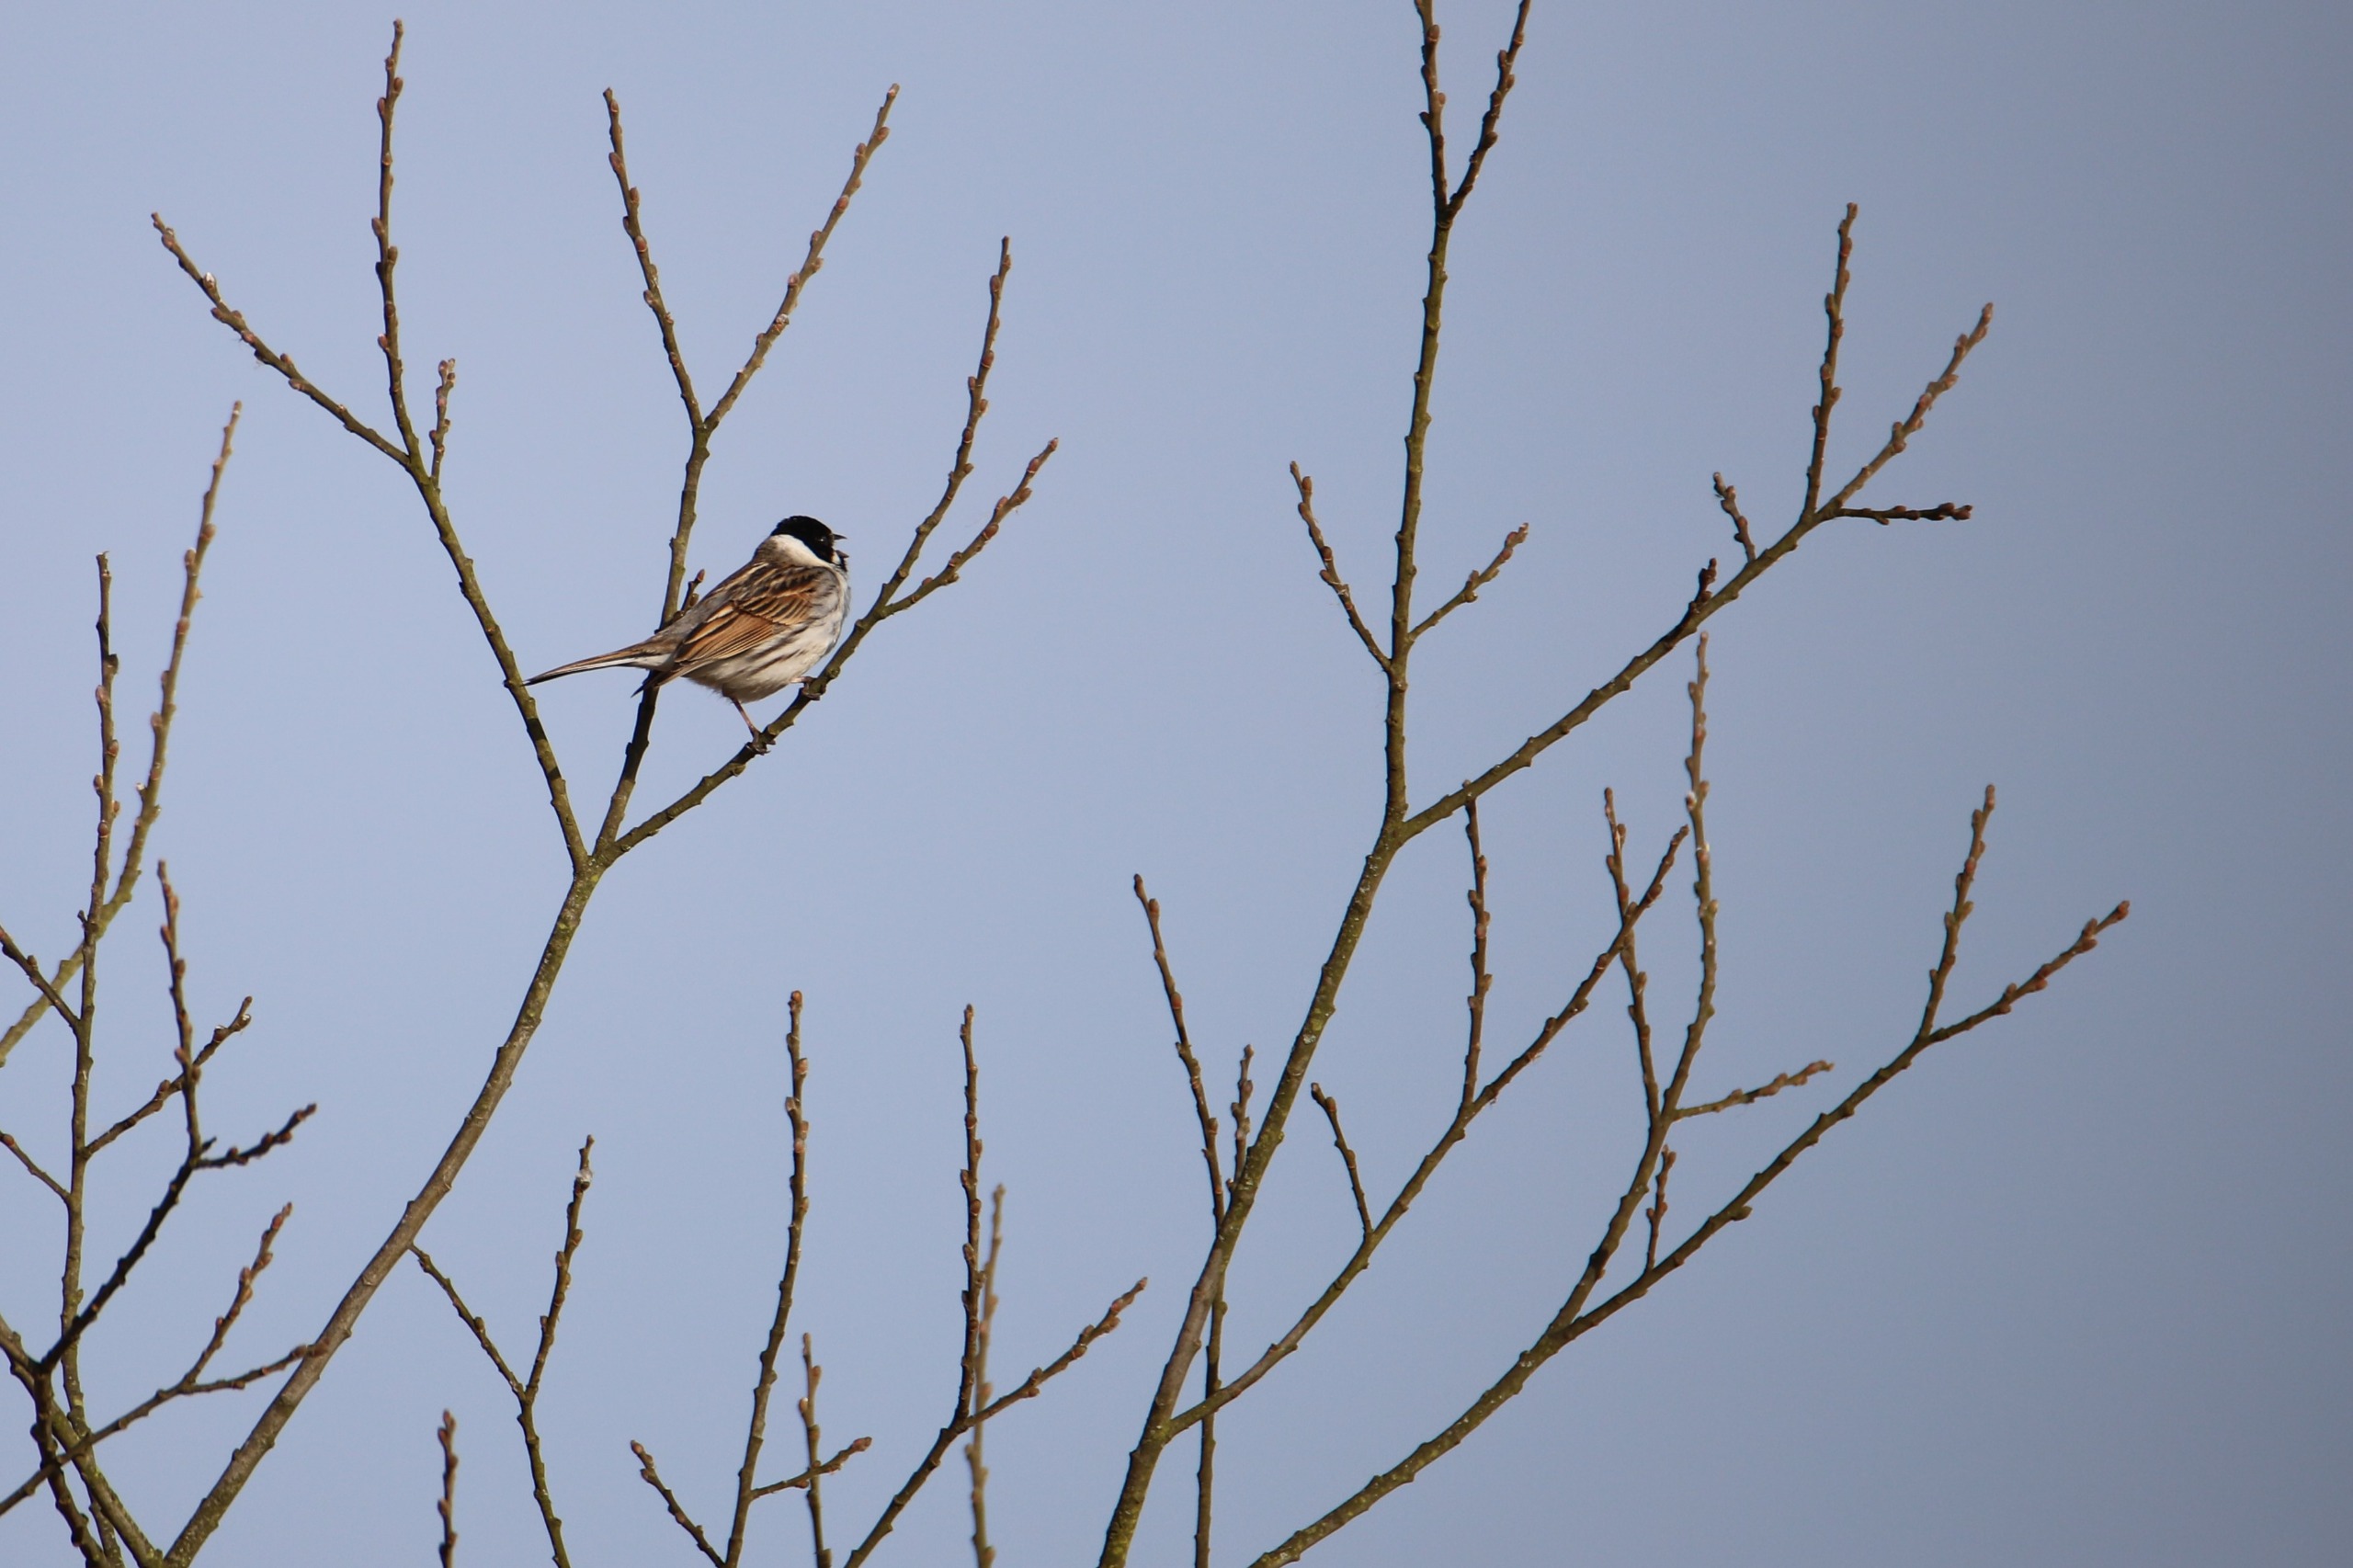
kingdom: Animalia
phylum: Chordata
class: Aves
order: Passeriformes
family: Emberizidae
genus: Emberiza
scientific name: Emberiza schoeniclus
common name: Rørspurv
